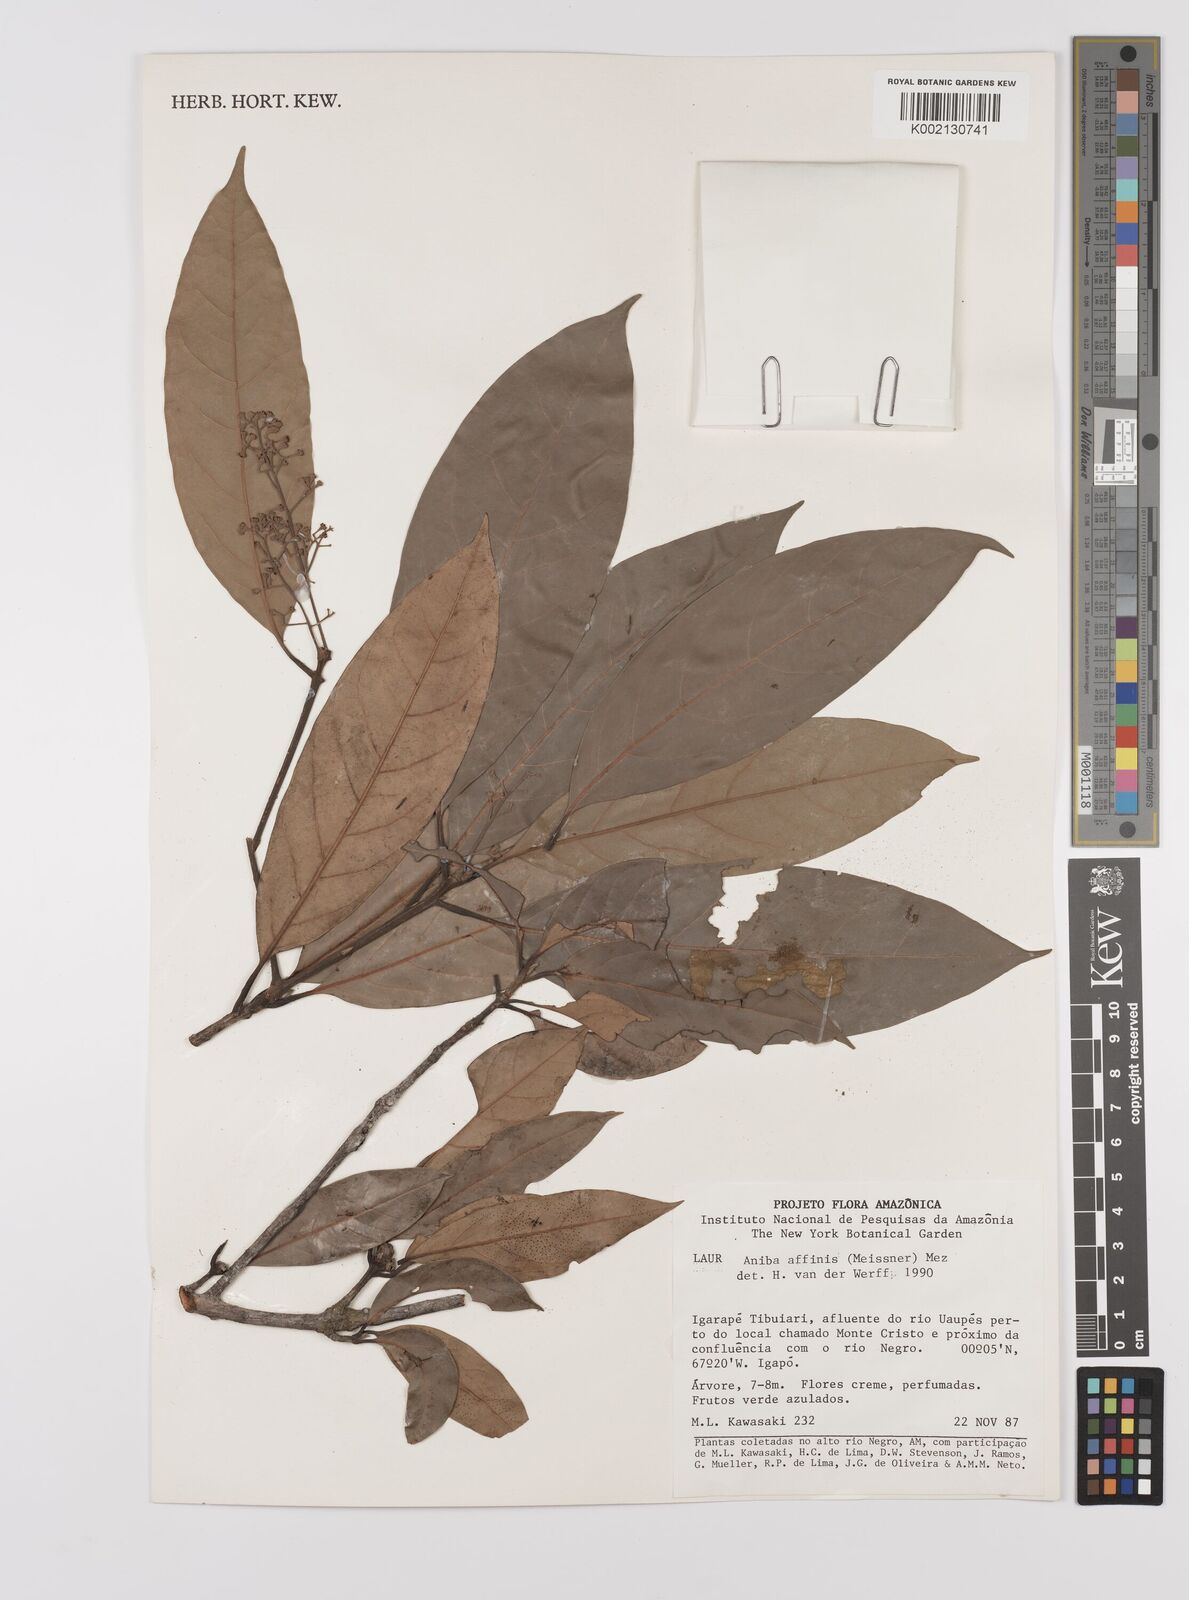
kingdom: Plantae
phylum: Tracheophyta
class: Magnoliopsida
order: Laurales
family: Lauraceae
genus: Aniba
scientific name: Aniba affinis
